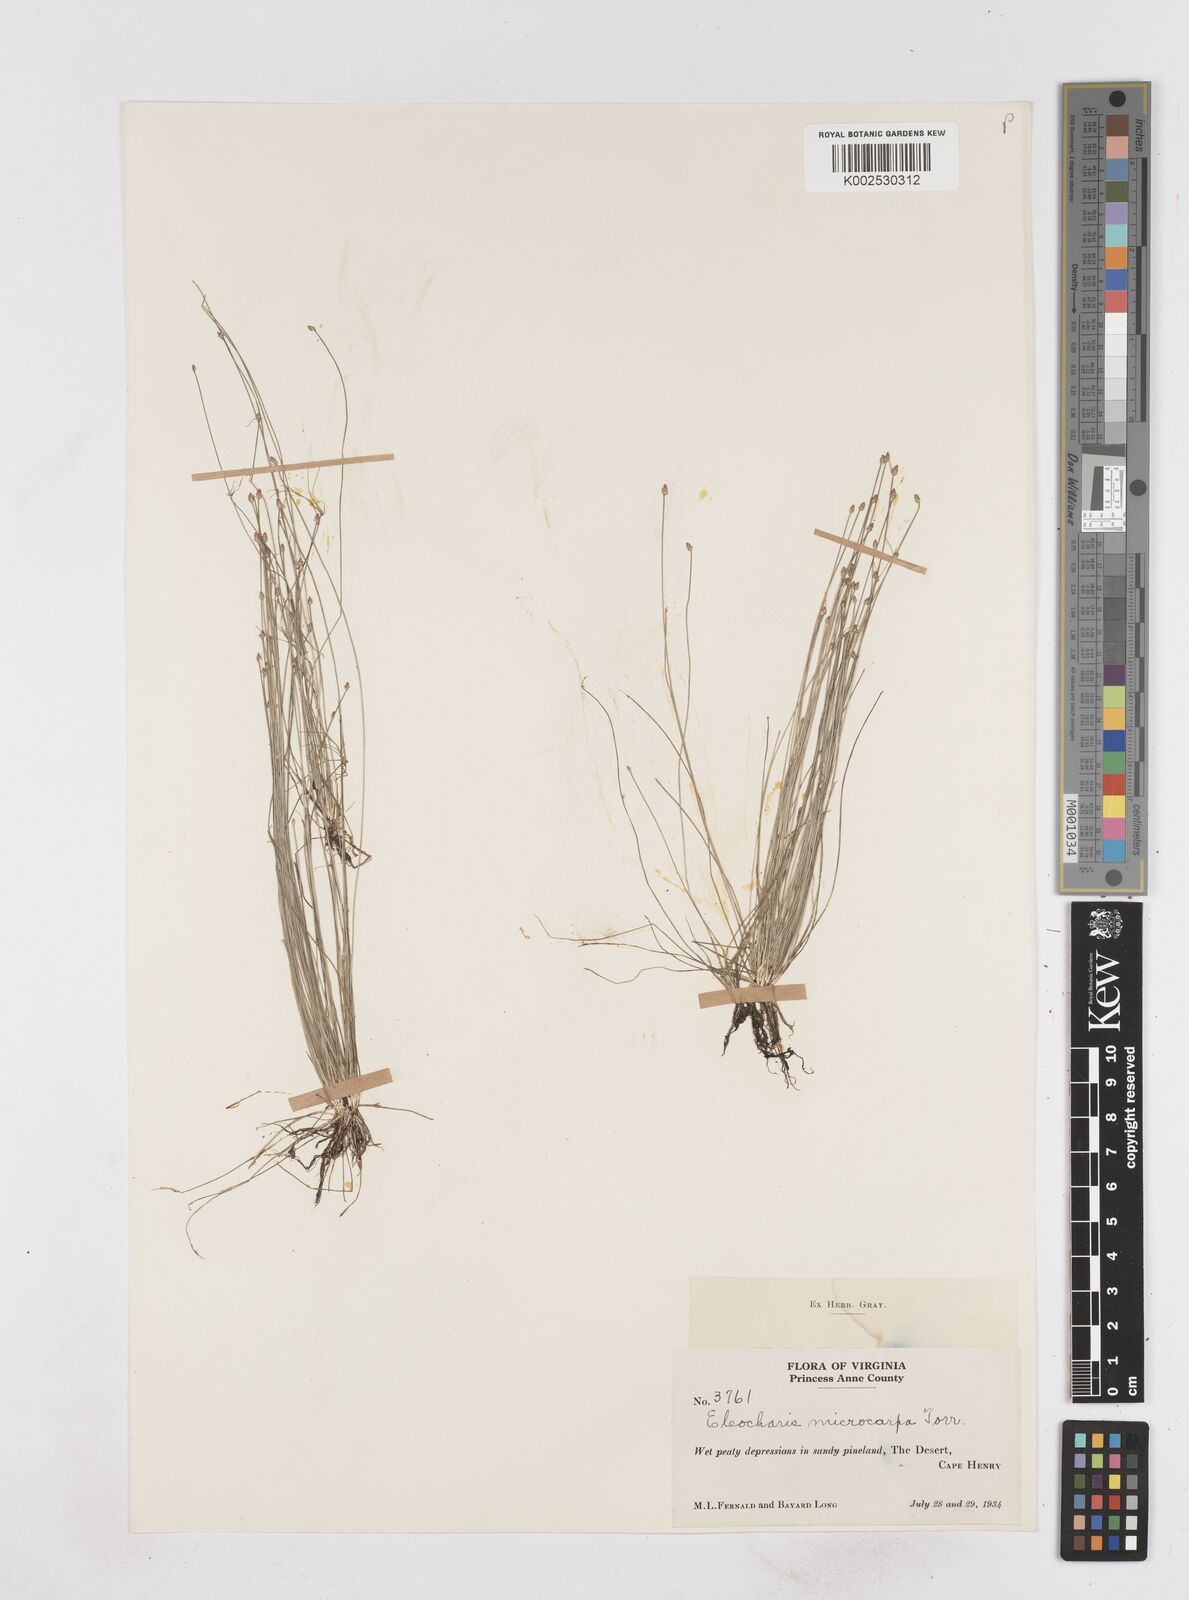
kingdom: Plantae
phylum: Tracheophyta
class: Liliopsida
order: Poales
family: Cyperaceae
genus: Eleocharis
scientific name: Eleocharis microcarpa
